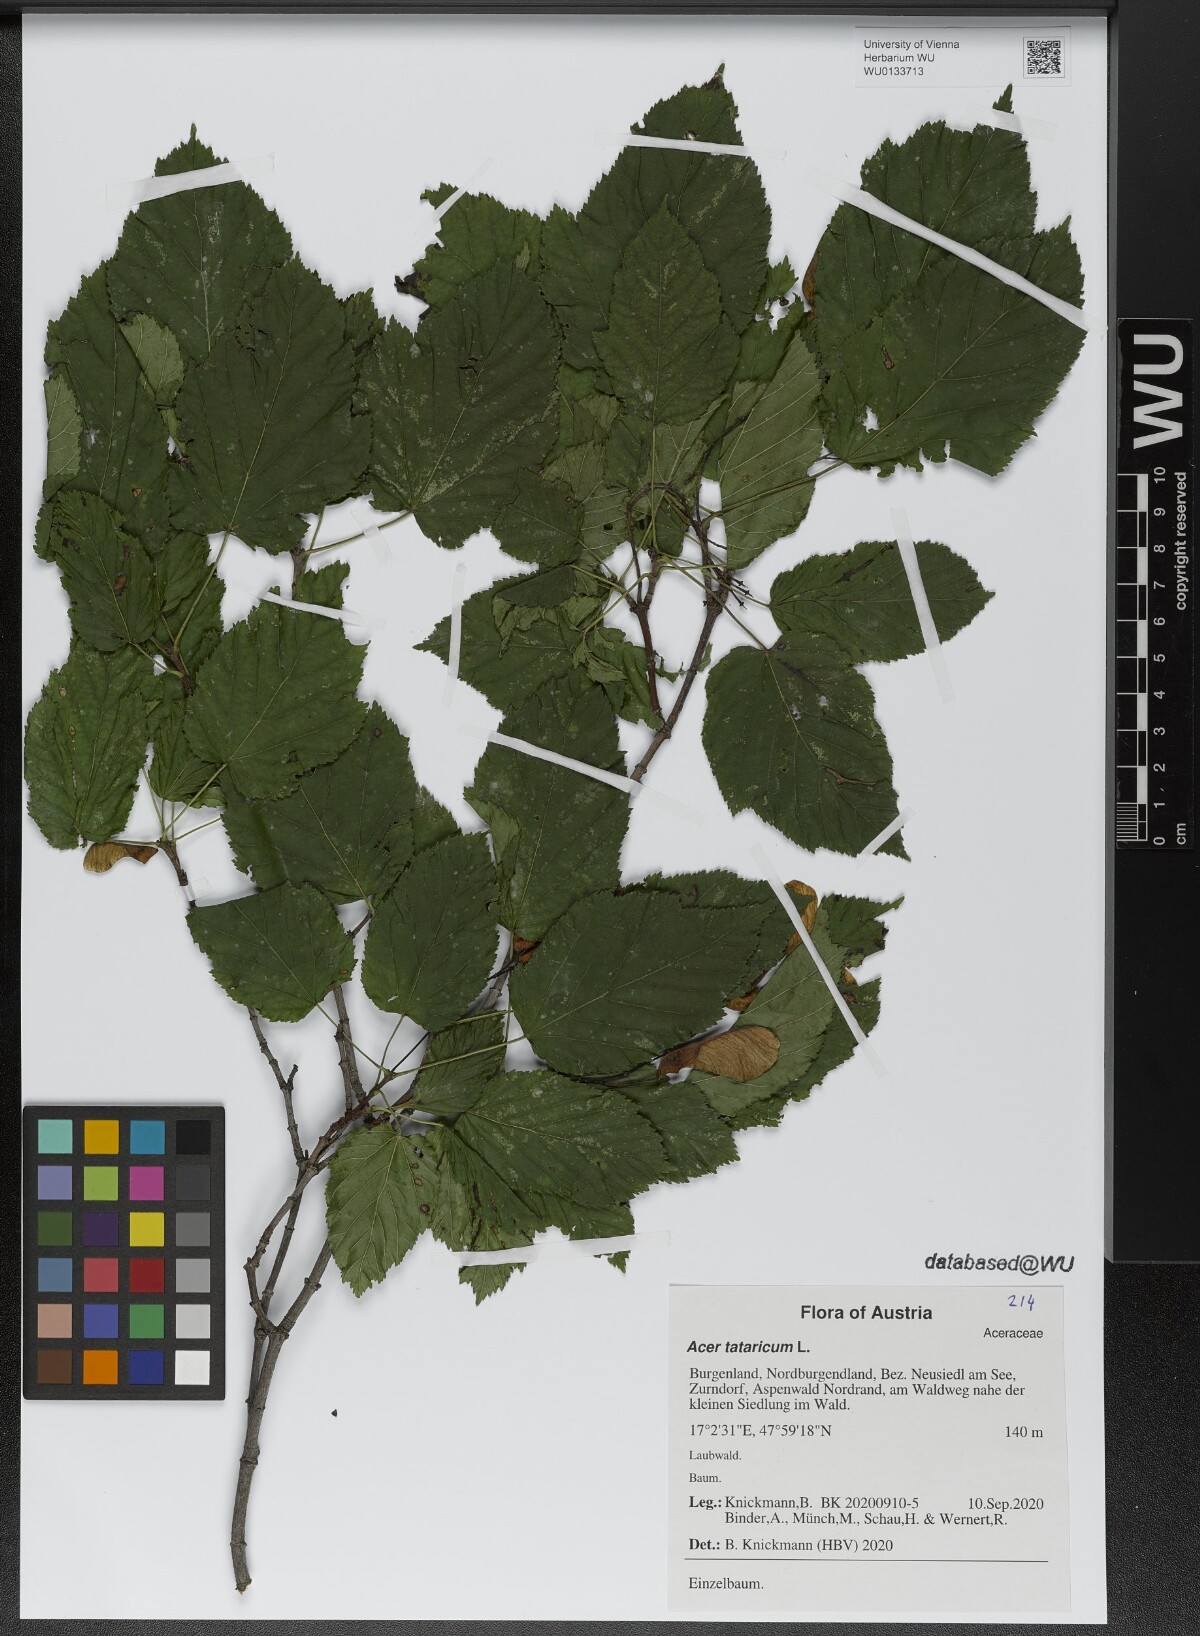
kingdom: Plantae
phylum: Tracheophyta
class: Magnoliopsida
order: Sapindales
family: Sapindaceae
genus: Acer
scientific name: Acer tataricum
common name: Tartar maple
